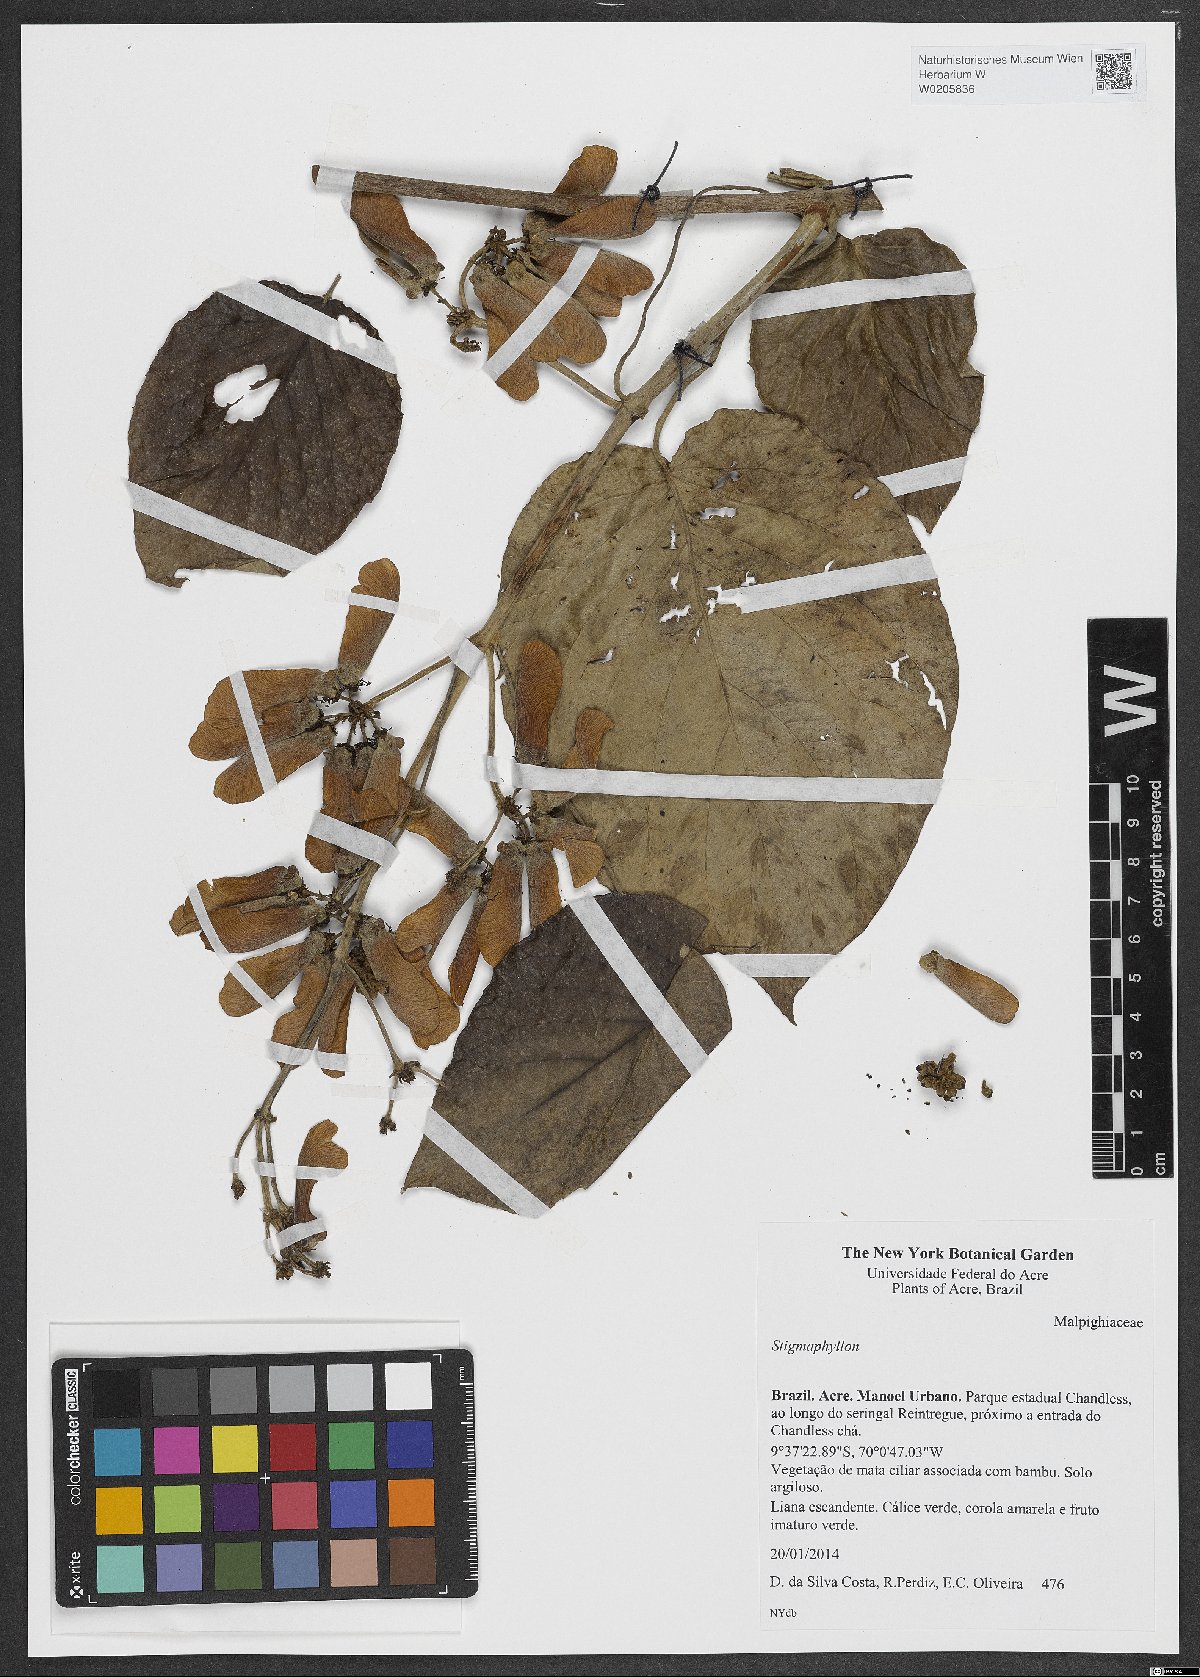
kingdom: Plantae
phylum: Tracheophyta
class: Magnoliopsida
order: Malpighiales
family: Malpighiaceae
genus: Stigmaphyllon
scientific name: Stigmaphyllon
